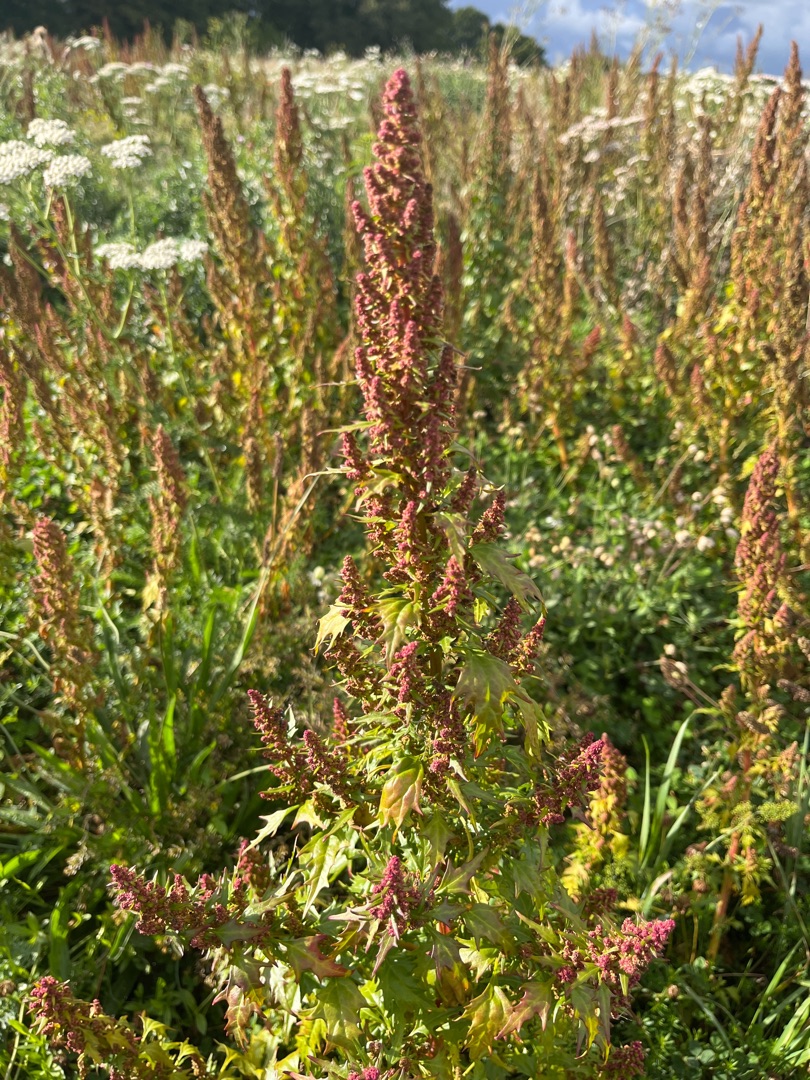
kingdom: Plantae
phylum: Tracheophyta
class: Magnoliopsida
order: Caryophyllales
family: Amaranthaceae
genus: Oxybasis
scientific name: Oxybasis rubra
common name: Rød gåsefod
